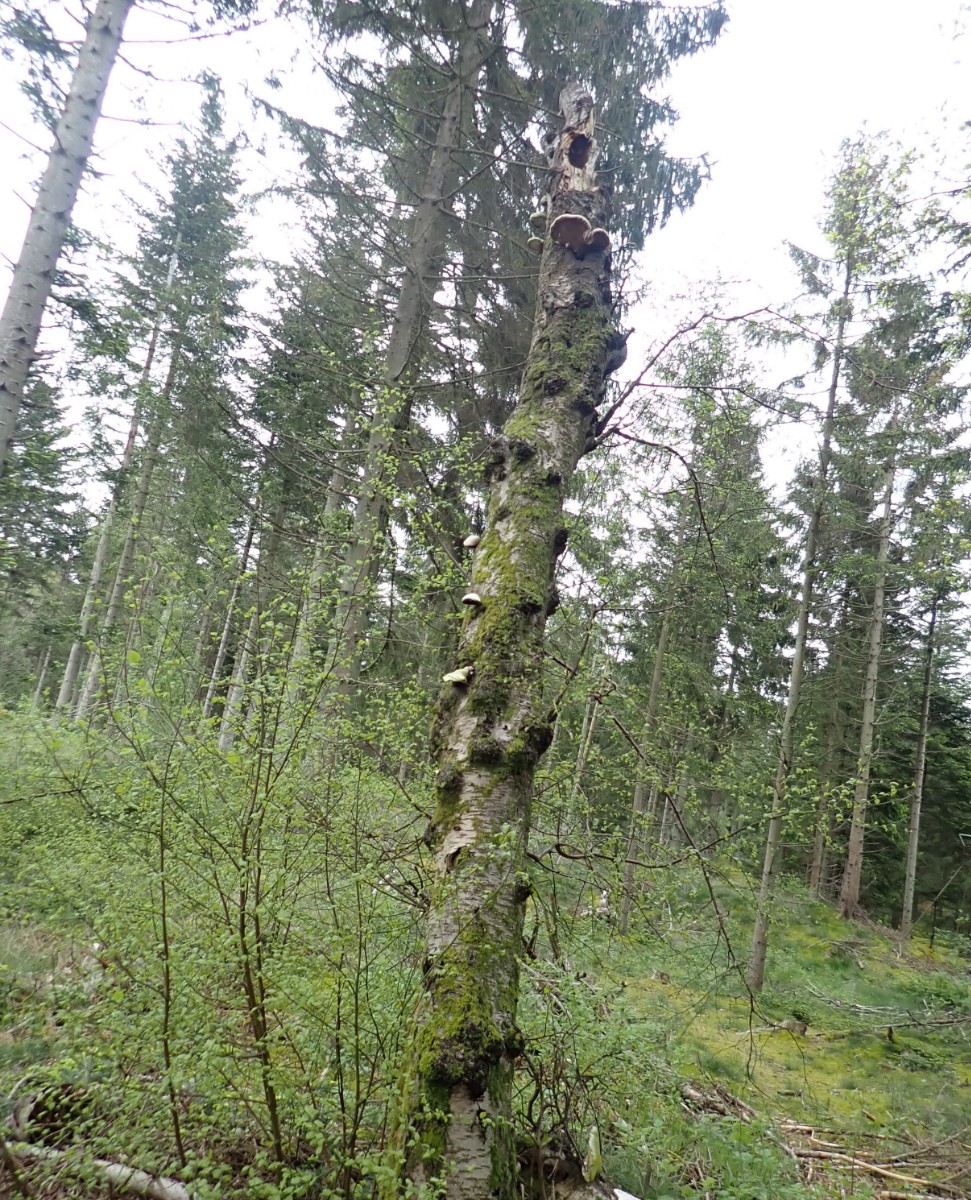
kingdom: Fungi
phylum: Basidiomycota
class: Agaricomycetes
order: Polyporales
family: Fomitopsidaceae
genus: Fomitopsis
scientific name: Fomitopsis betulina
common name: birkeporesvamp
